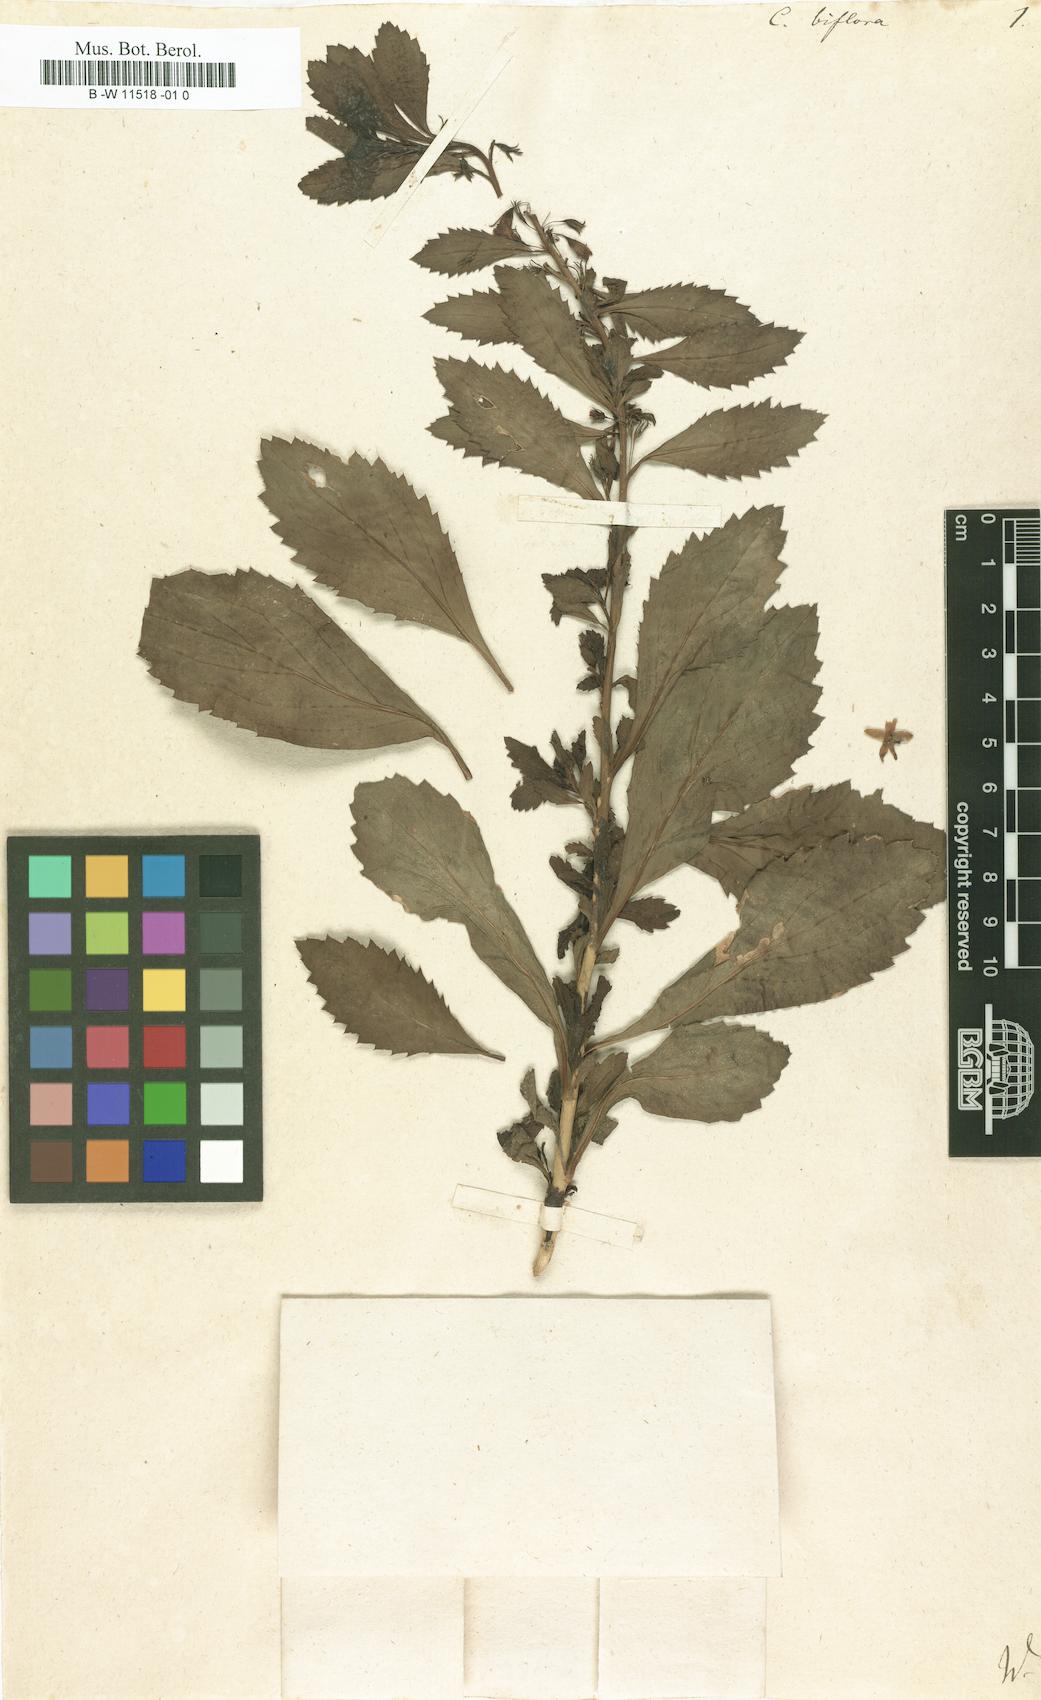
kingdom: Plantae
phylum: Tracheophyta
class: Magnoliopsida
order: Lamiales
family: Scrophulariaceae
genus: Capraria
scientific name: Capraria biflora
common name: Goatweed
